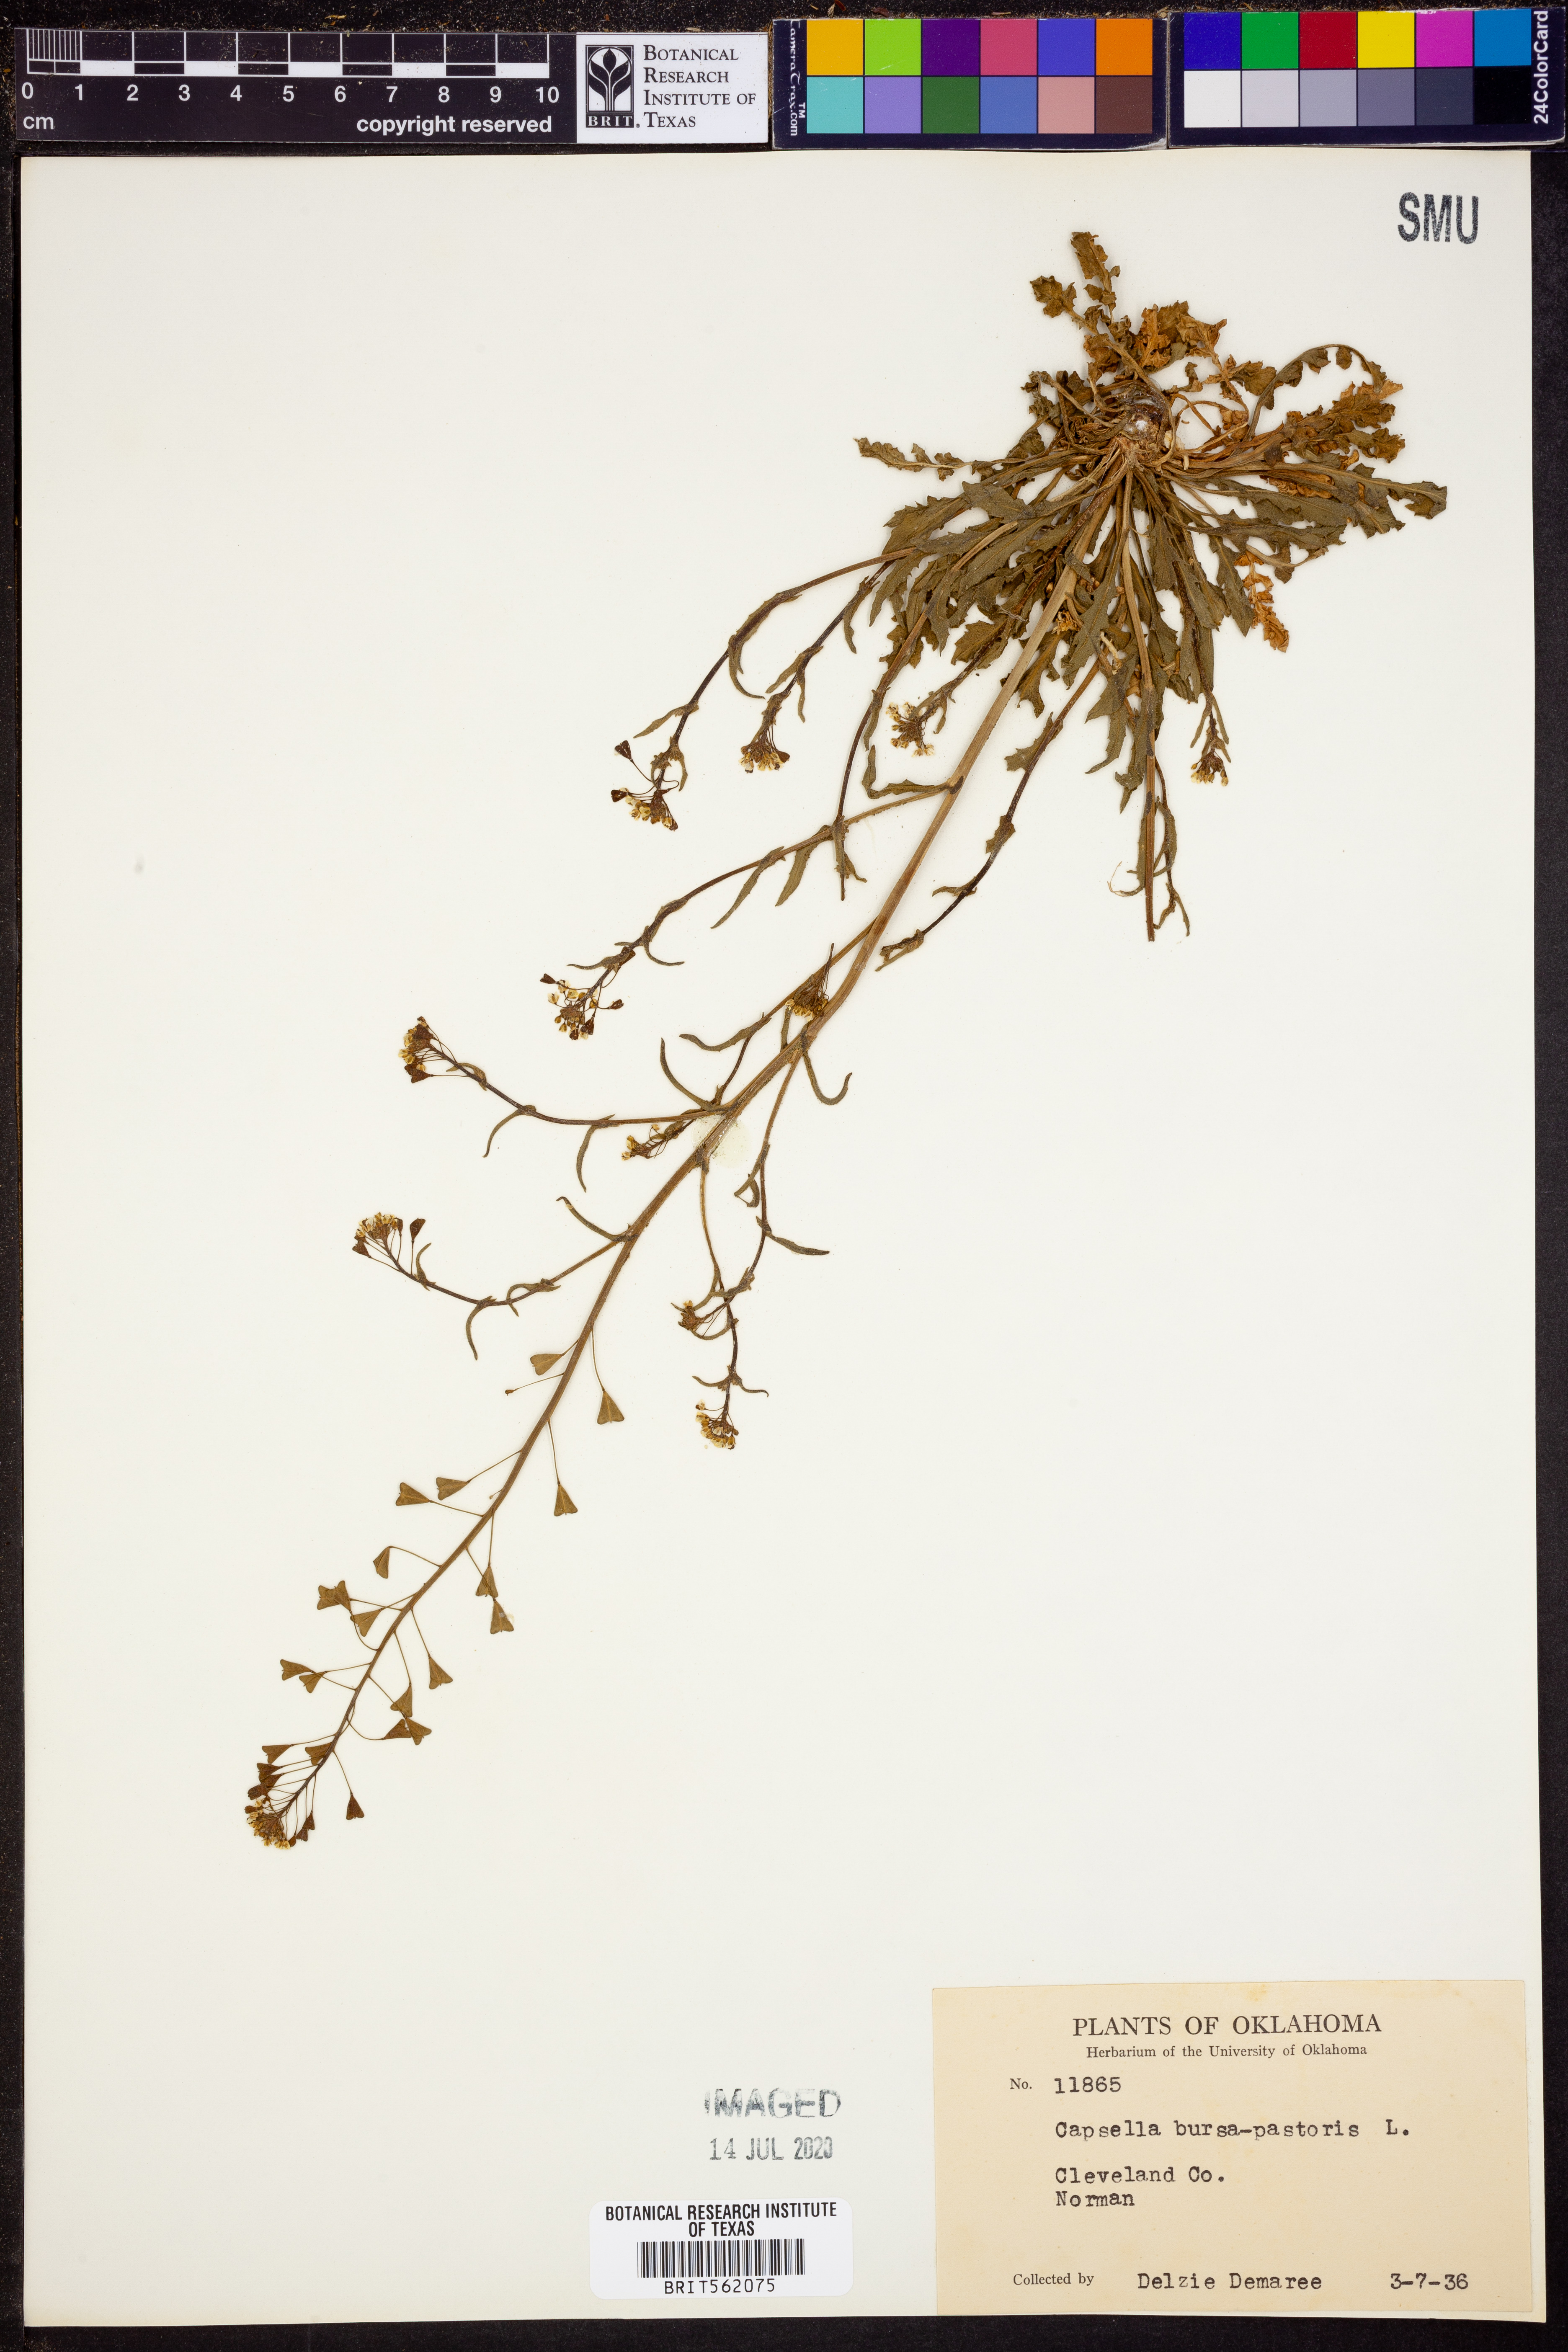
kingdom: Plantae
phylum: Tracheophyta
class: Magnoliopsida
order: Brassicales
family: Brassicaceae
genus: Capsella
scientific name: Capsella bursa-pastoris
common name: Shepherd's purse
